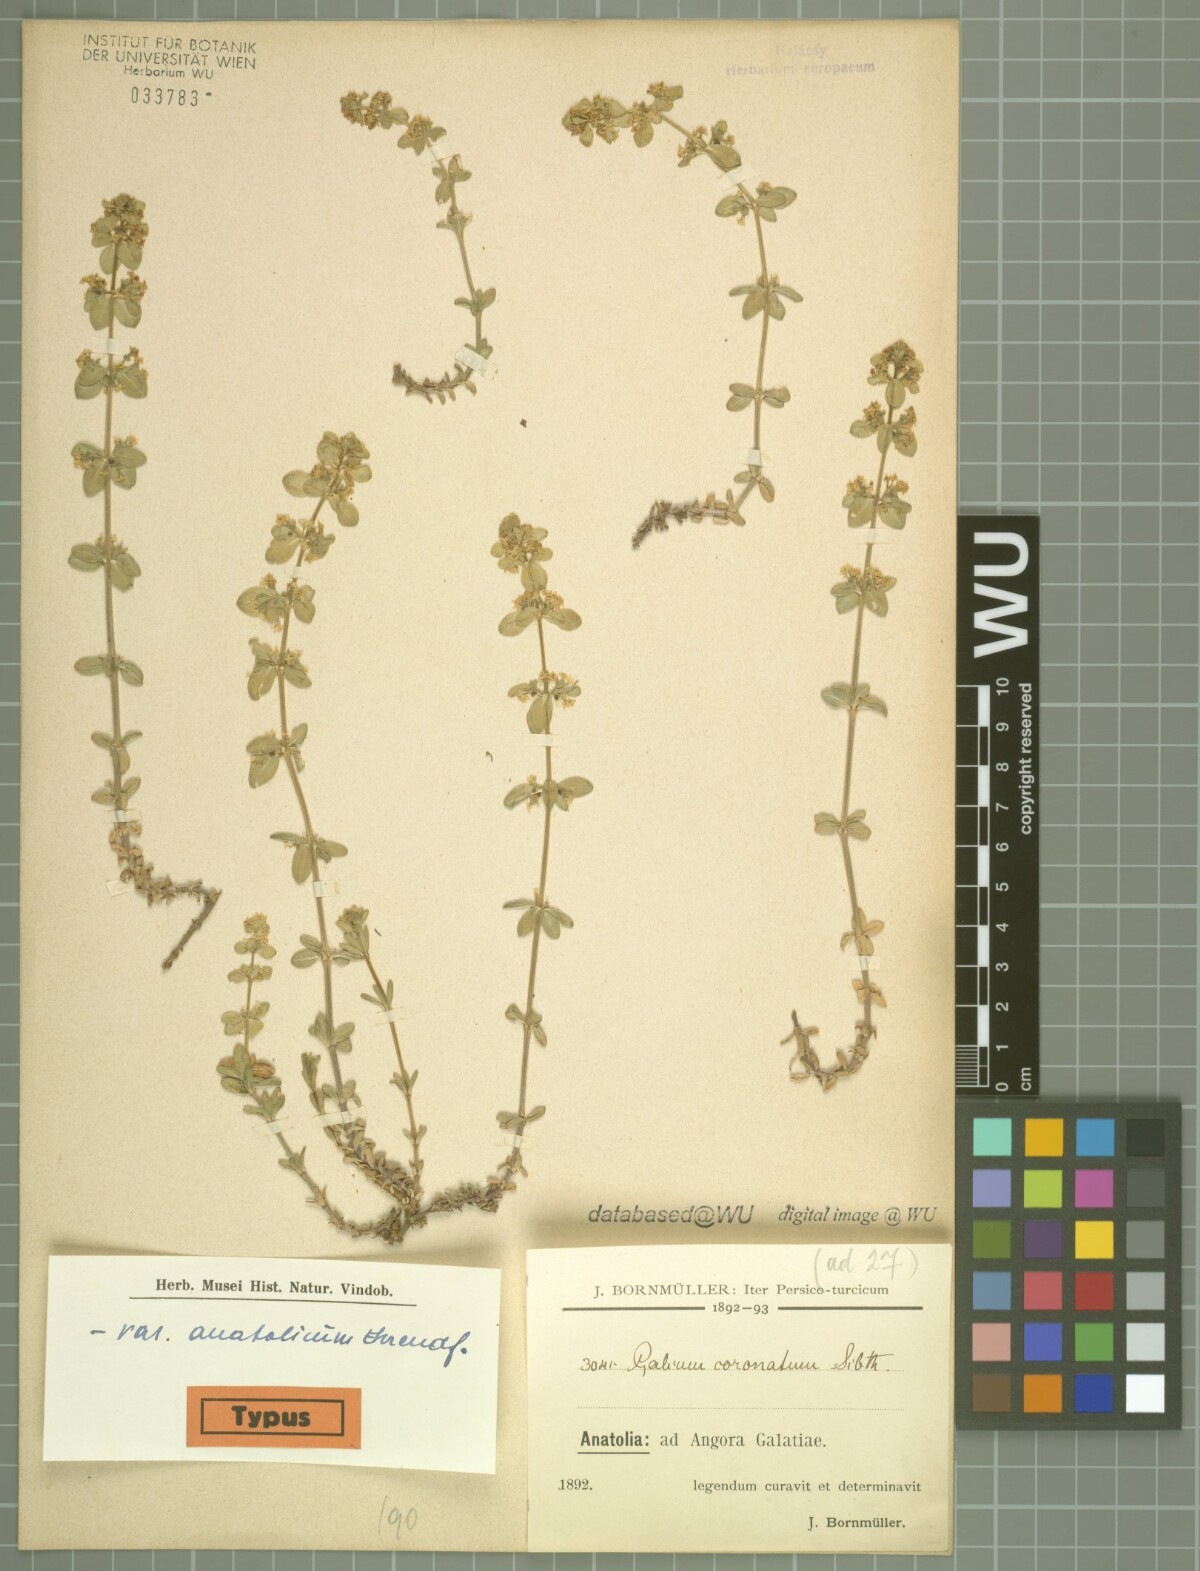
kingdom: Plantae
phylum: Tracheophyta
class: Magnoliopsida
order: Gentianales
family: Rubiaceae
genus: Cruciata
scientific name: Cruciata taurica
